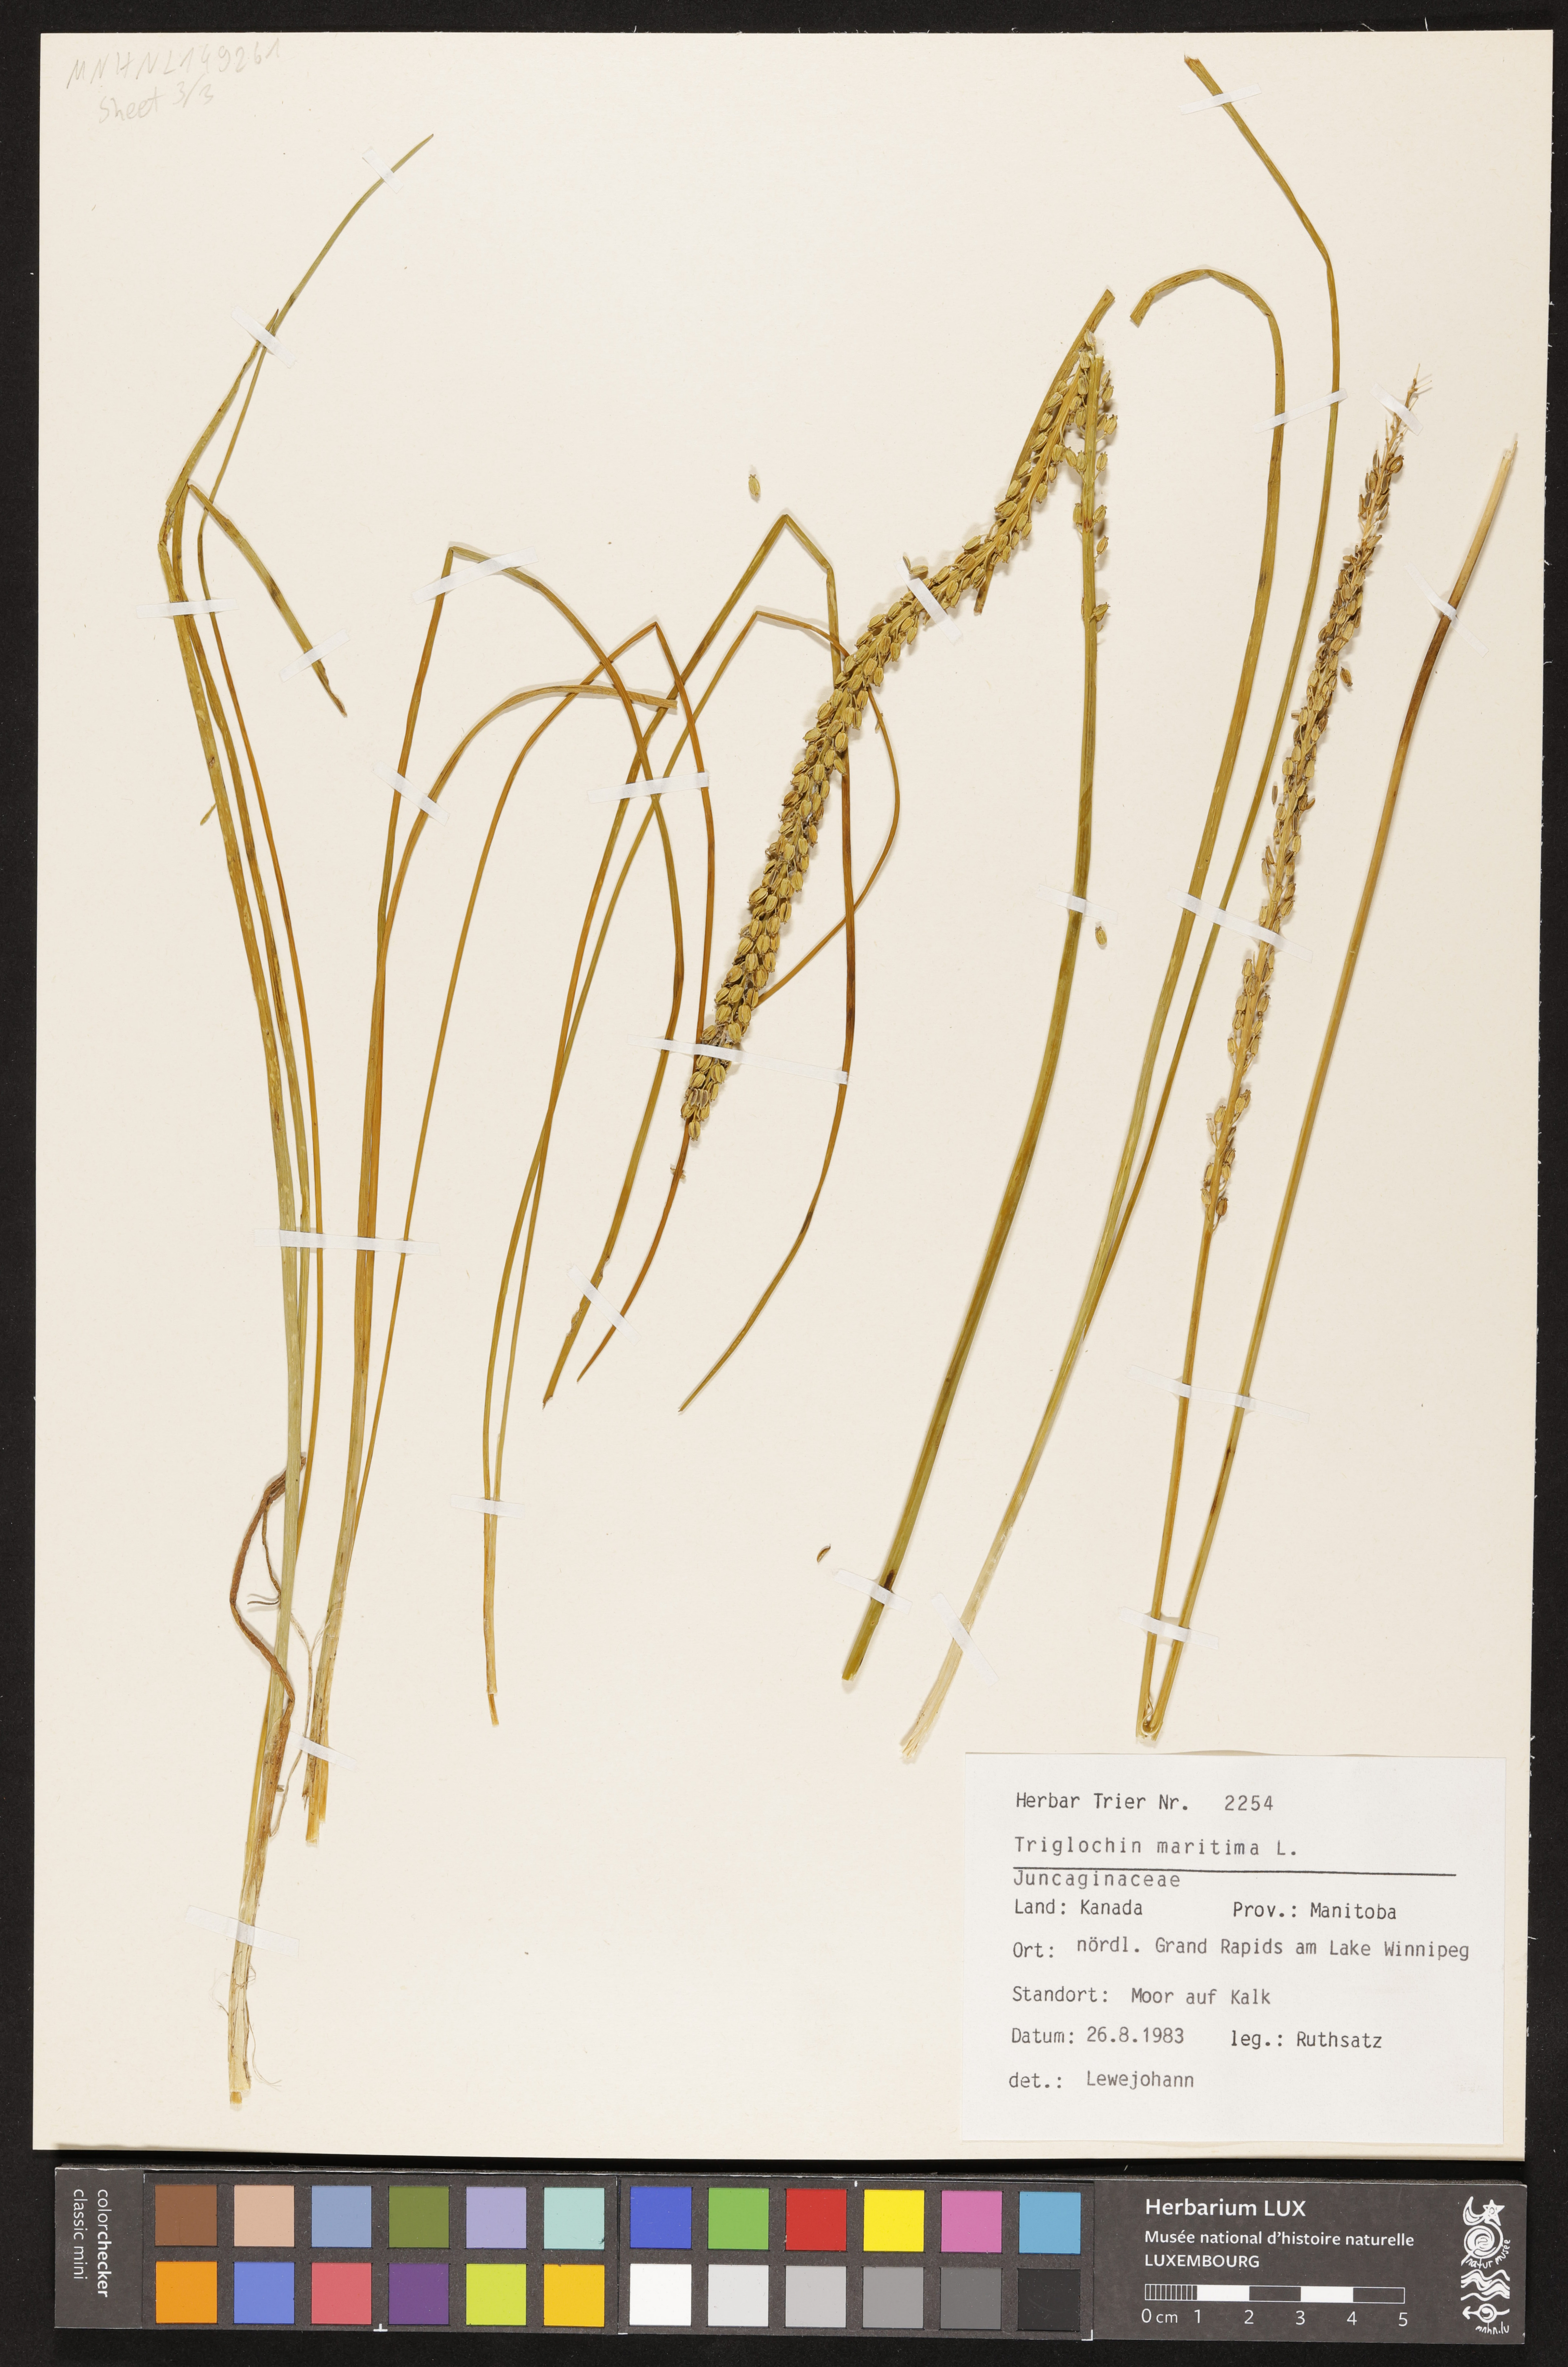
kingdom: Plantae
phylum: Tracheophyta
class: Liliopsida
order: Alismatales
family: Juncaginaceae
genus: Triglochin
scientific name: Triglochin maritima
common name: Sea arrowgrass
